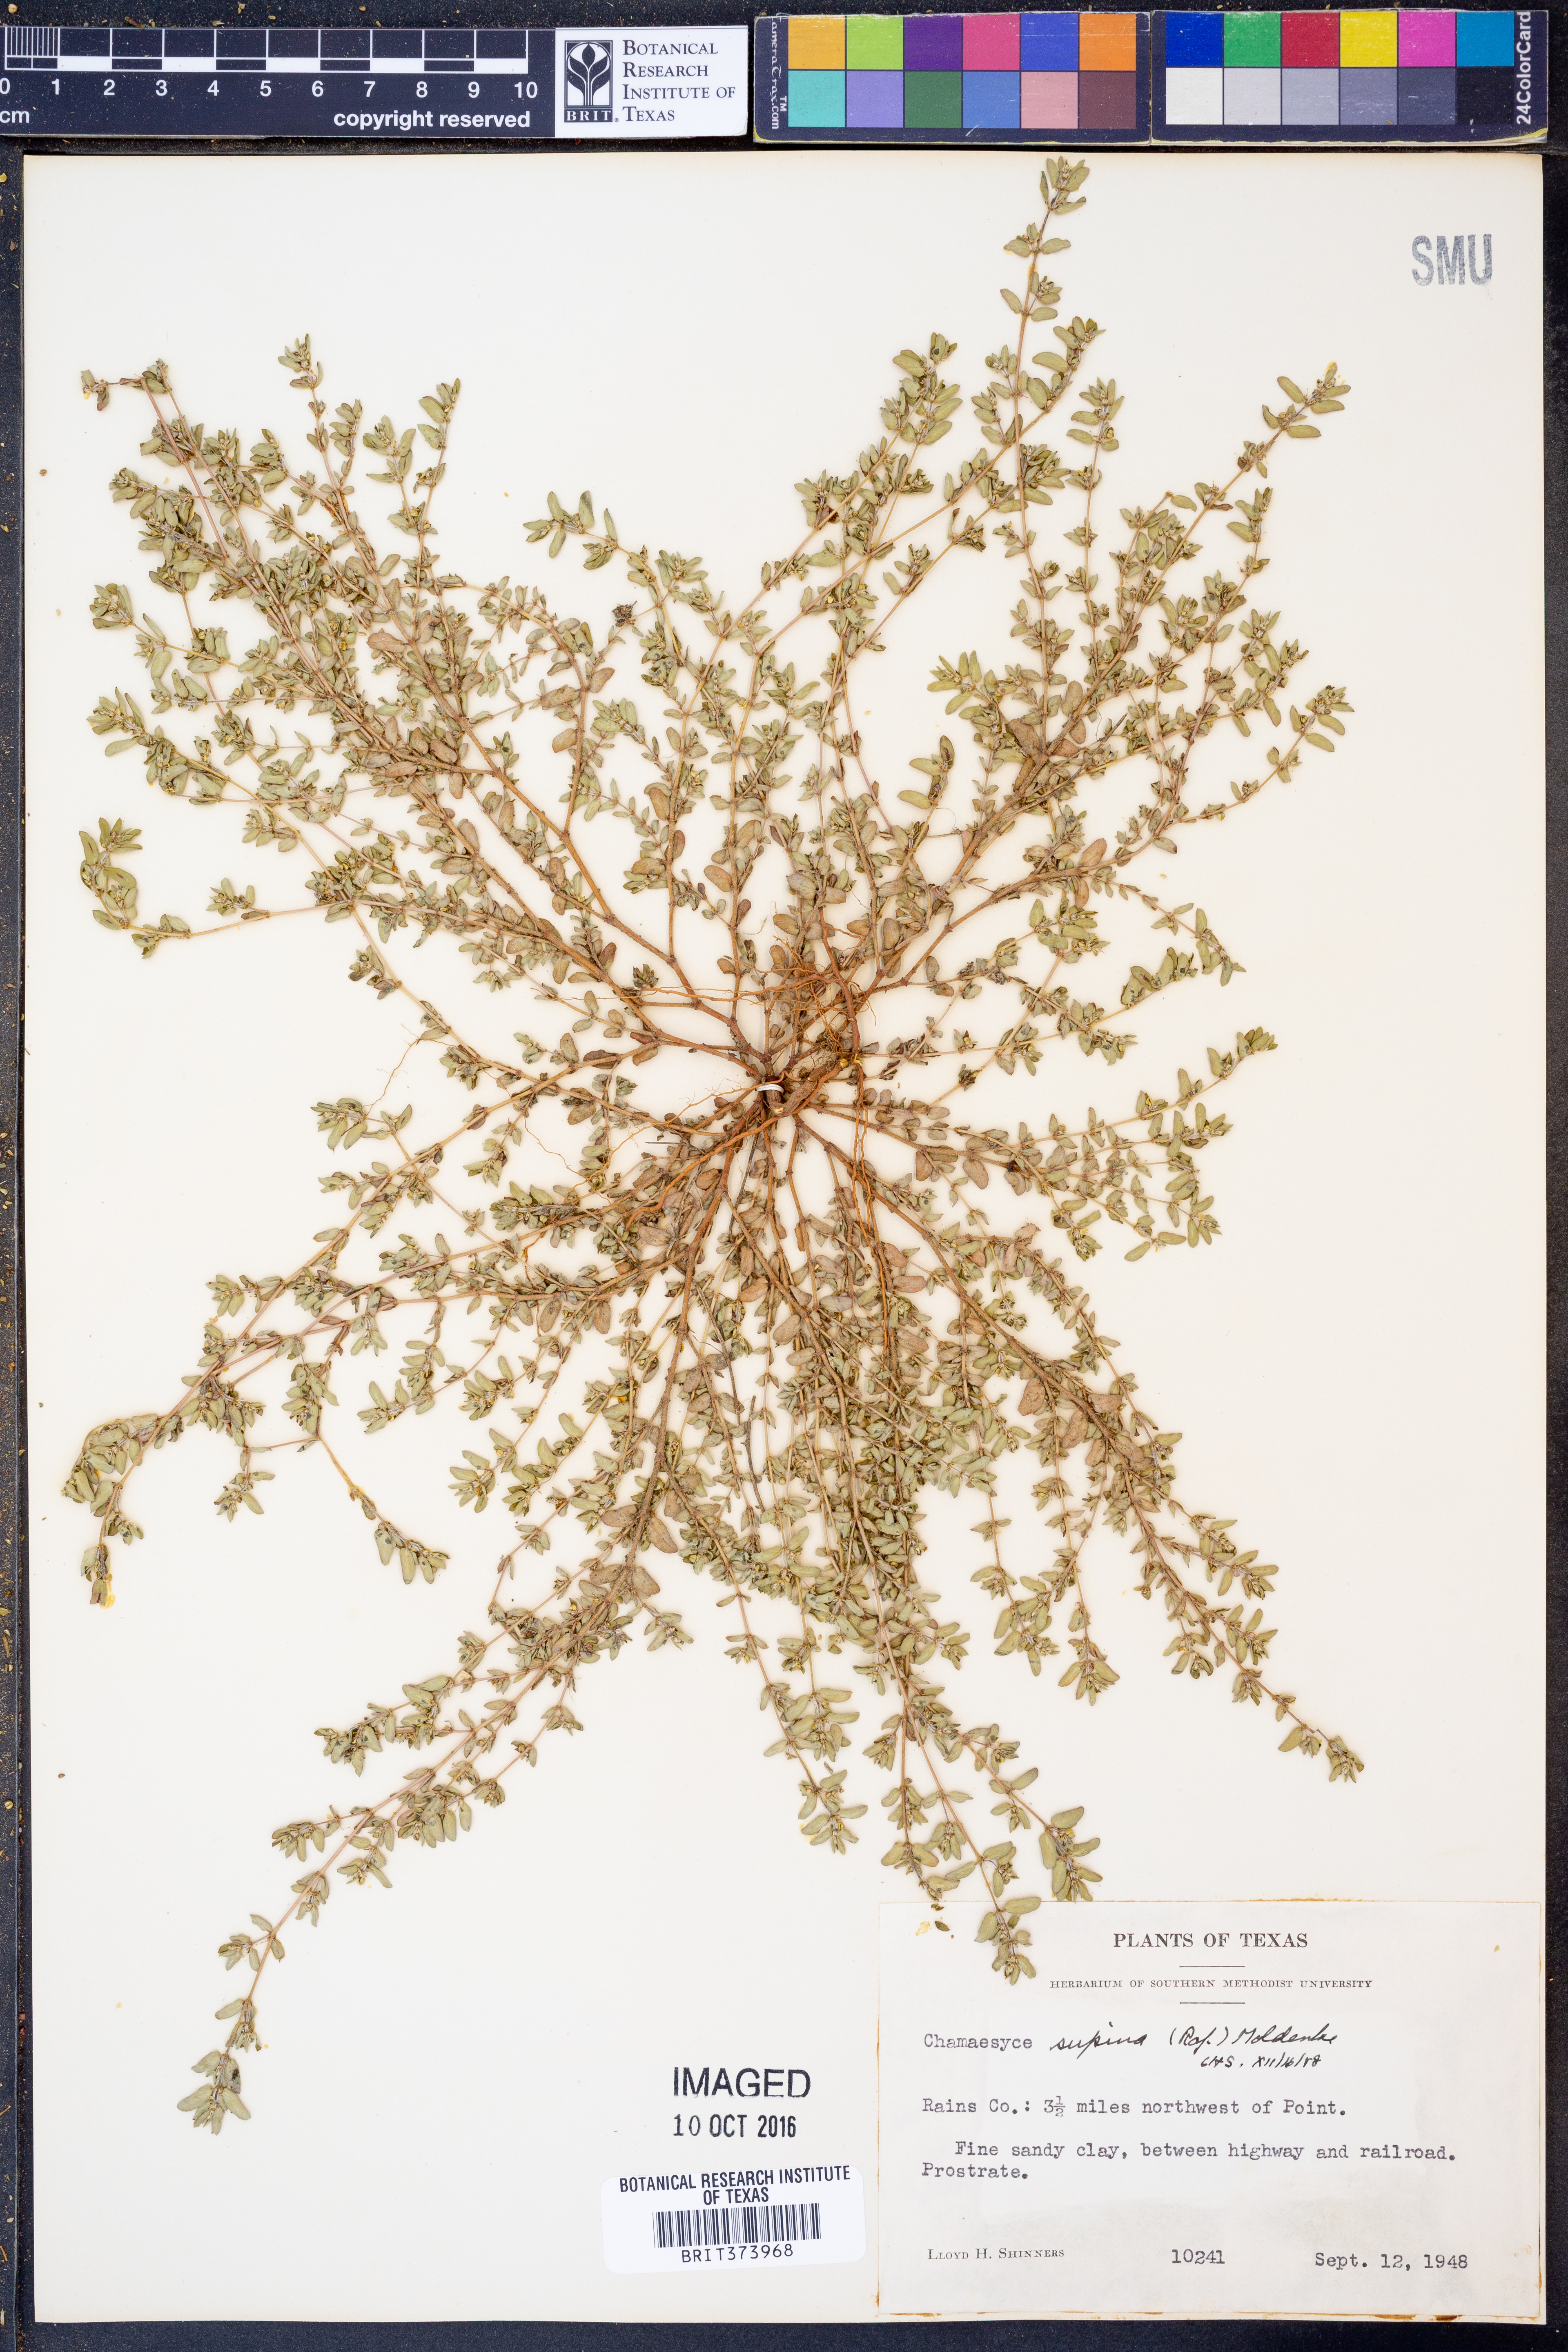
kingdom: Plantae
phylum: Tracheophyta
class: Magnoliopsida
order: Malpighiales
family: Euphorbiaceae
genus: Euphorbia
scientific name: Euphorbia maculata
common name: Spotted spurge
